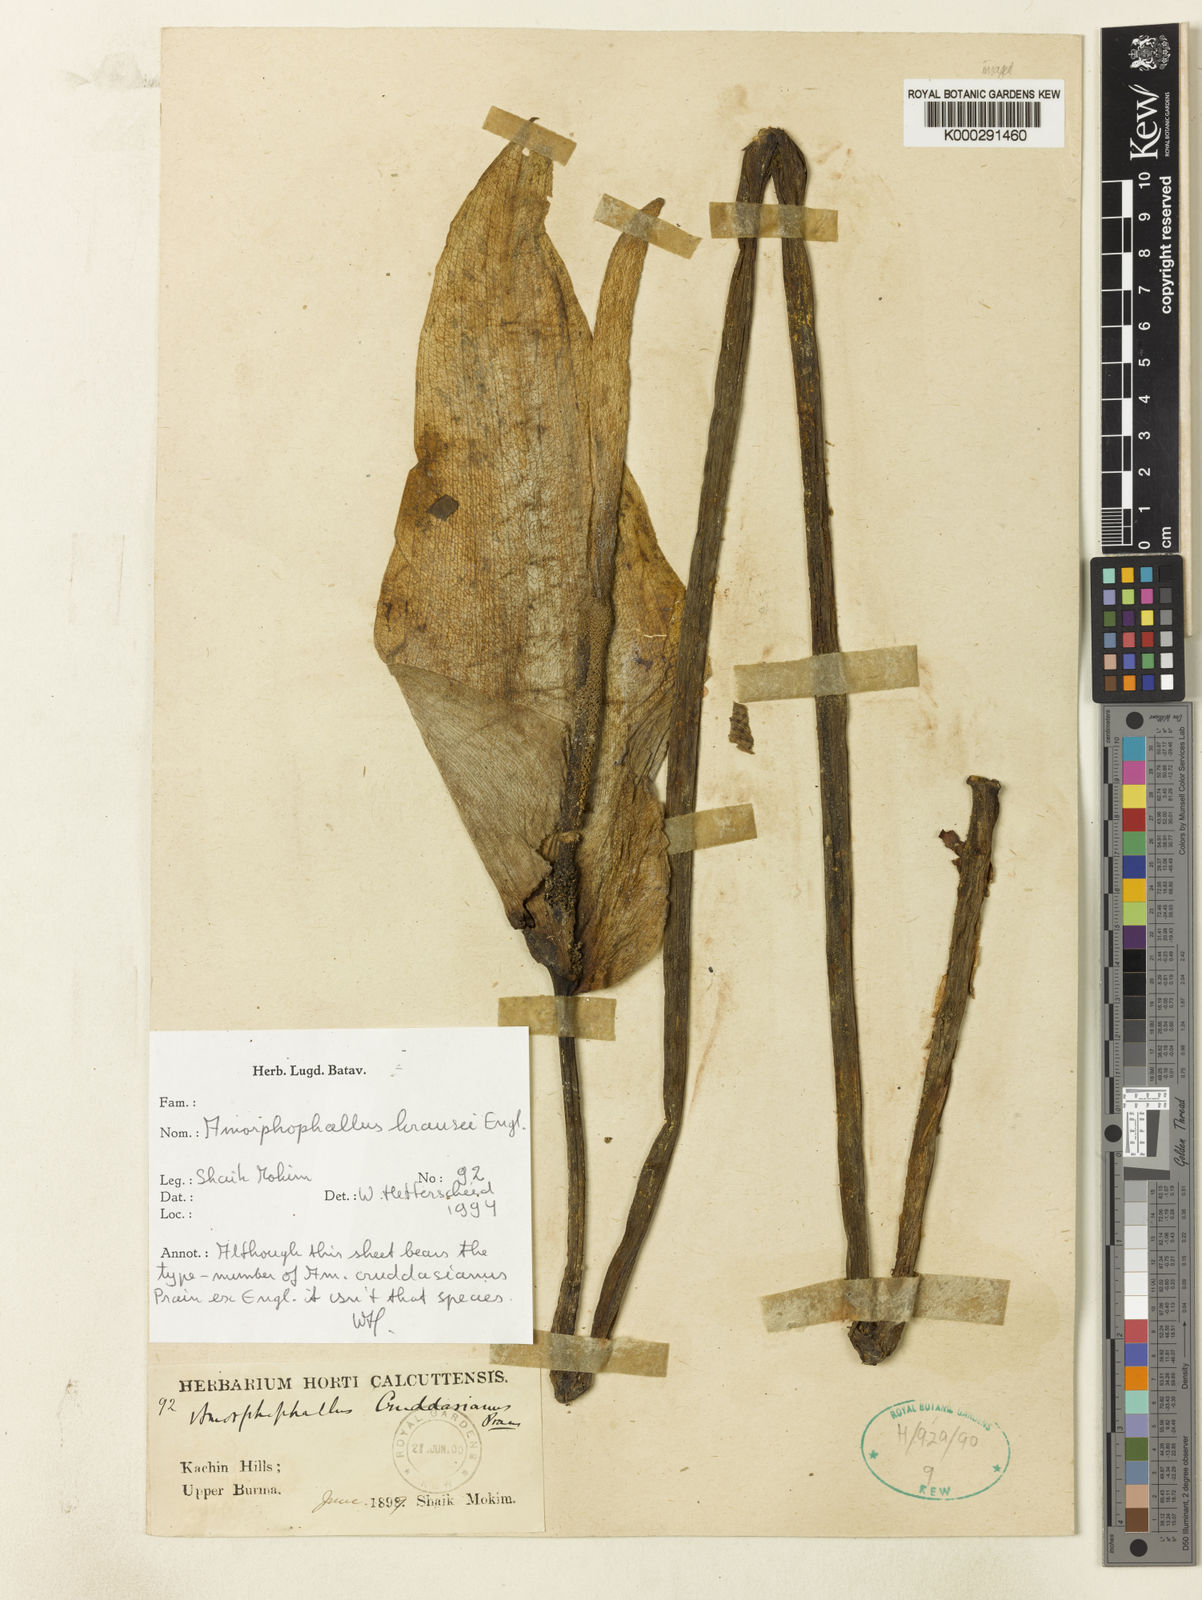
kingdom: Plantae
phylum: Tracheophyta
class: Liliopsida
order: Alismatales
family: Araceae
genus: Amorphophallus
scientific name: Amorphophallus krausei
